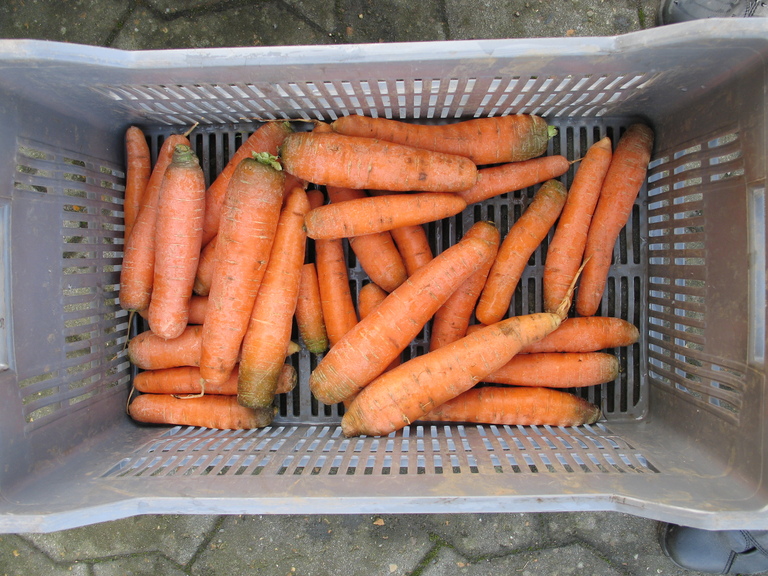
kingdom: Plantae
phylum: Tracheophyta
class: Magnoliopsida
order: Apiales
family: Apiaceae
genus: Daucus
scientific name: Daucus carota
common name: Wild carrot
